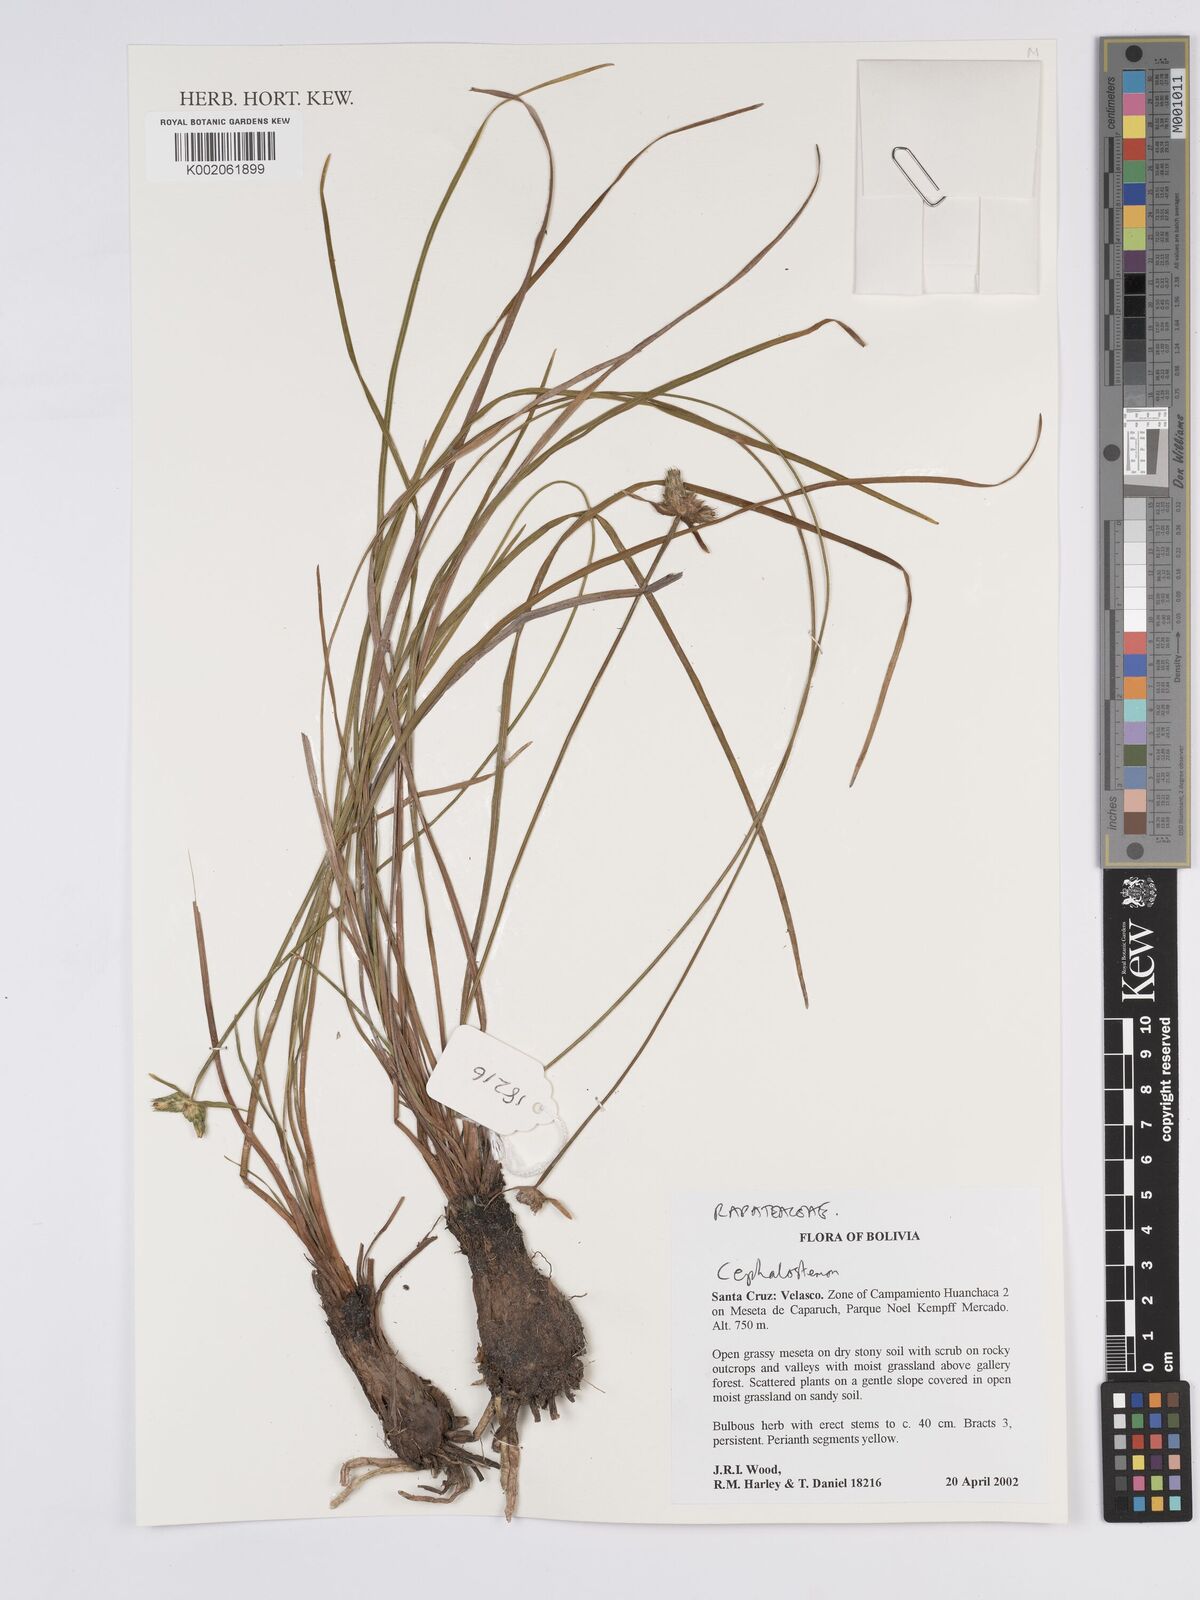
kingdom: Plantae
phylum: Tracheophyta
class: Liliopsida
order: Poales
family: Rapateaceae
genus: Cephalostemon
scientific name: Cephalostemon
